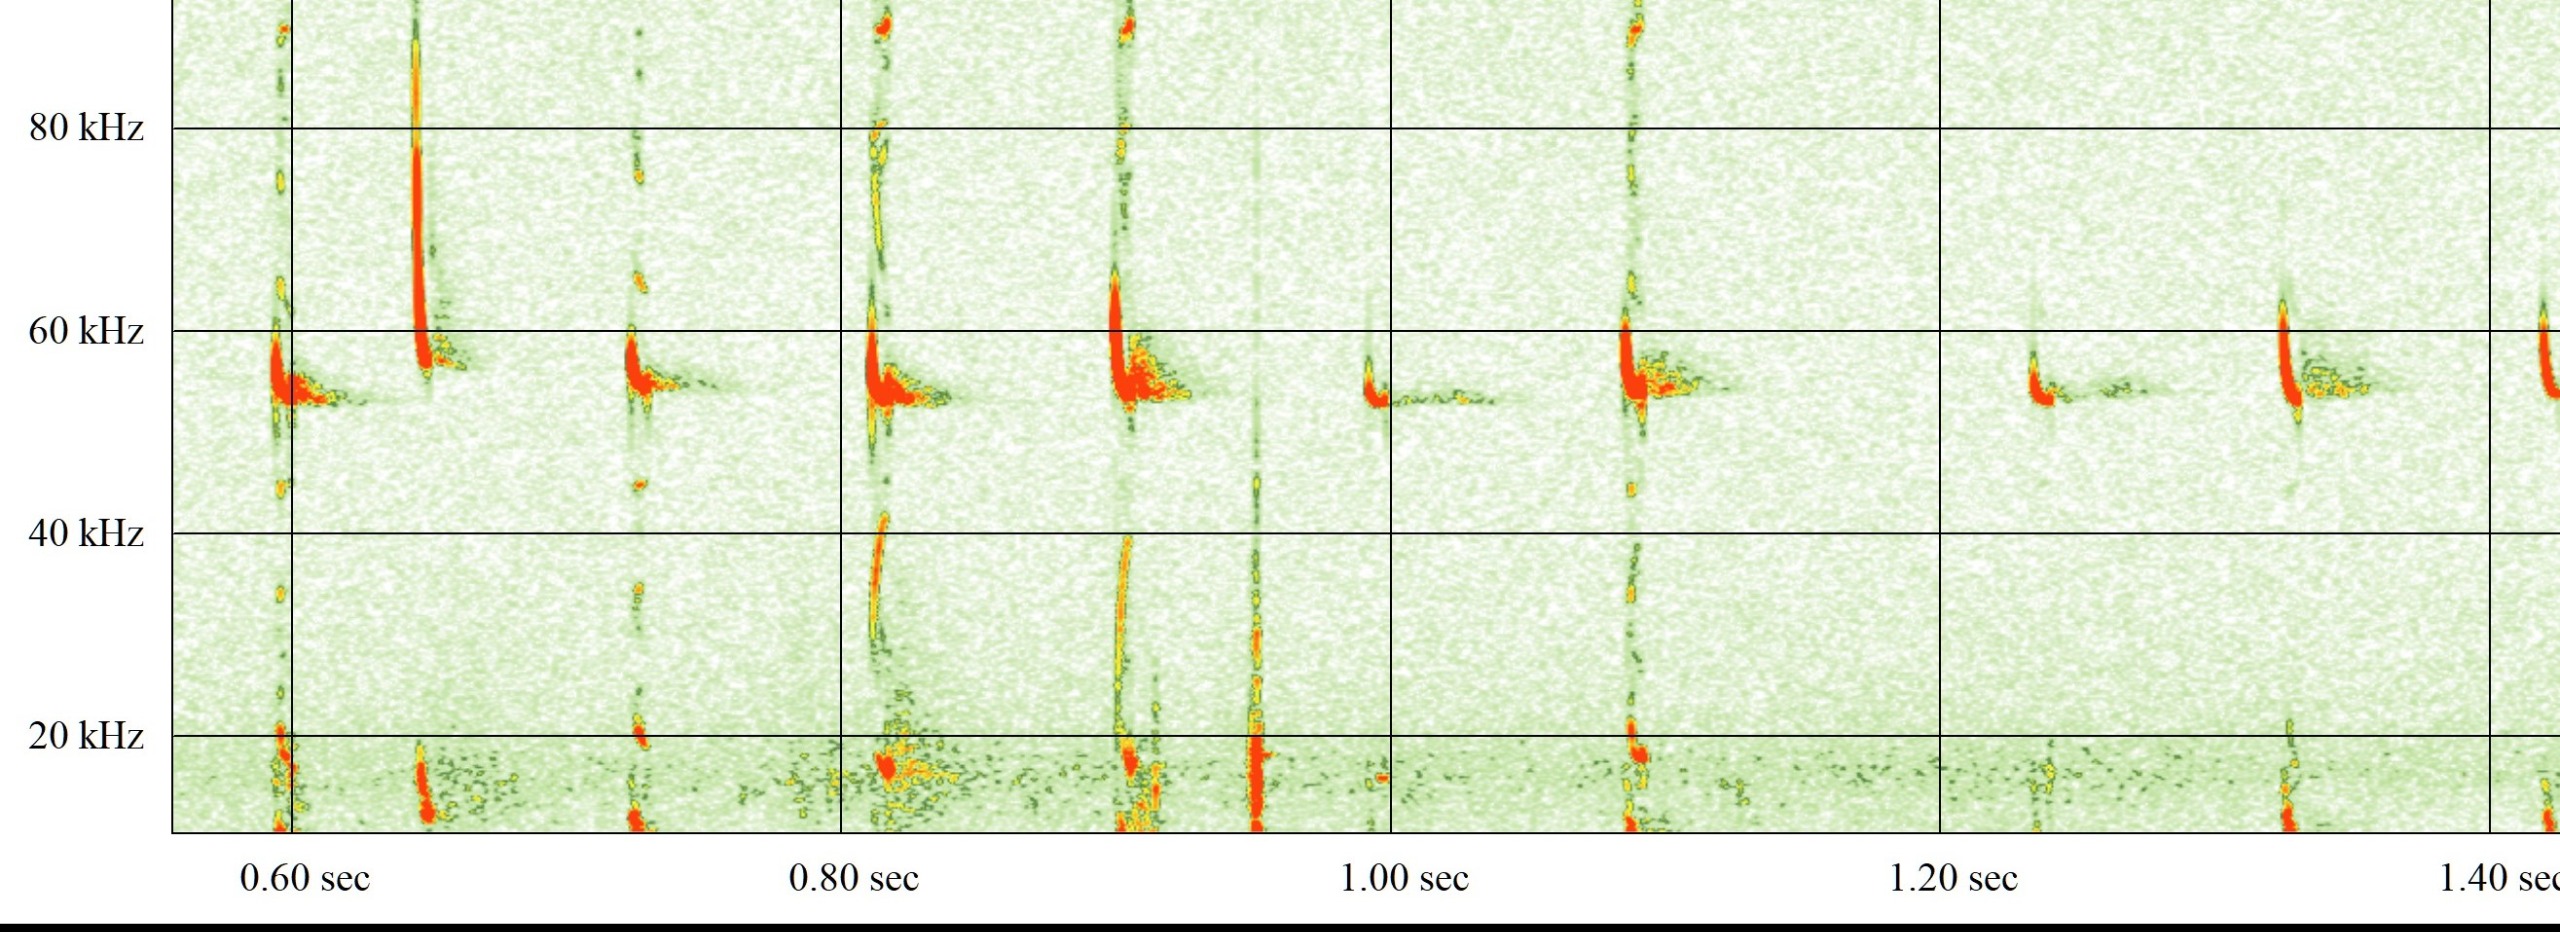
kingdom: Animalia
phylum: Chordata
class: Mammalia
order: Chiroptera
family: Vespertilionidae
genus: Pipistrellus
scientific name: Pipistrellus pygmaeus
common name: Dværgflagermus
